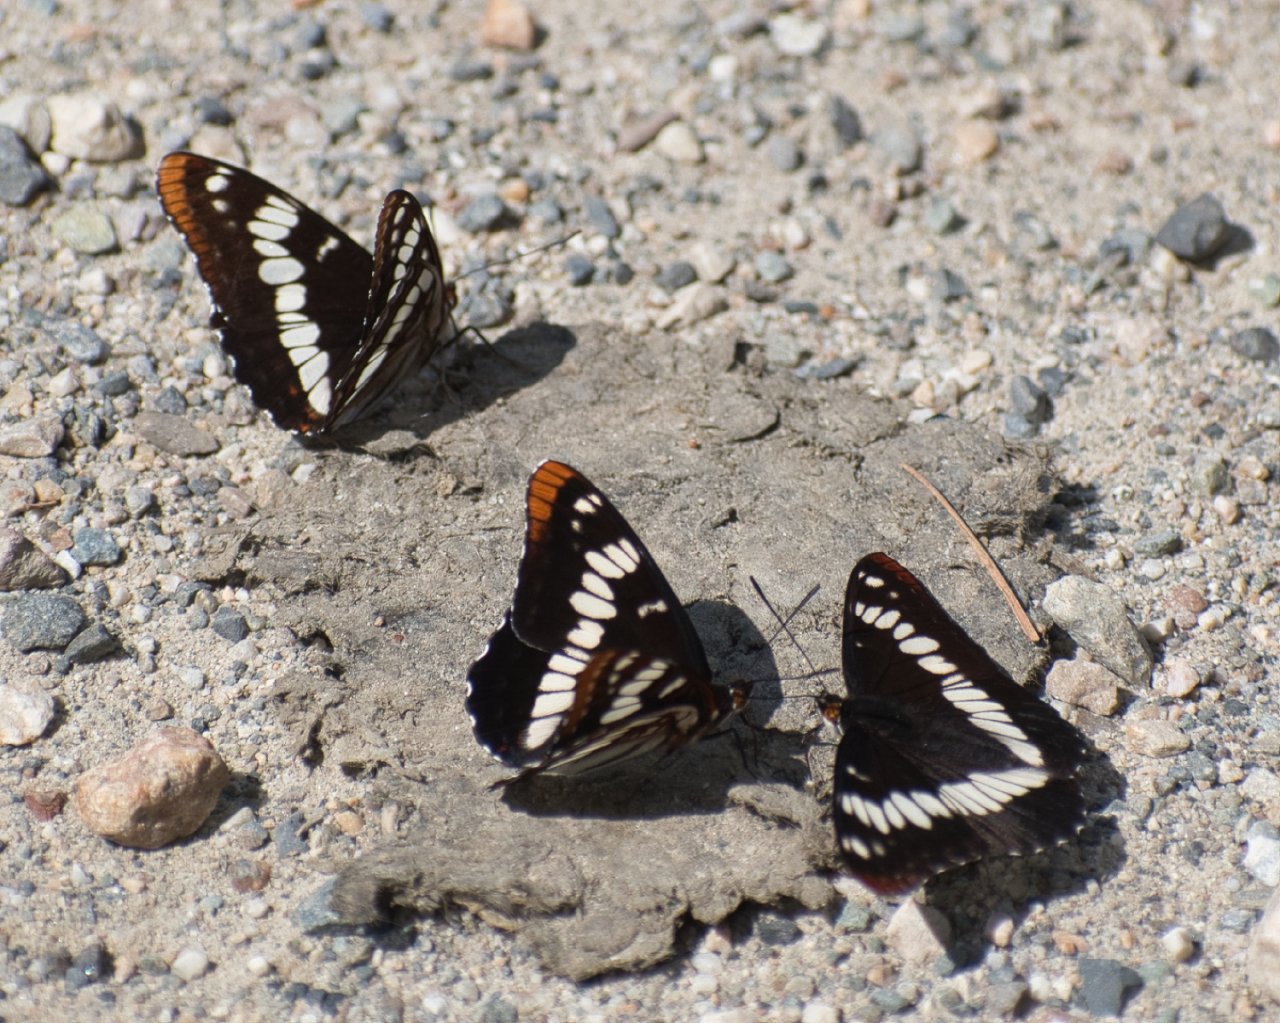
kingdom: Animalia
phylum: Arthropoda
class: Insecta
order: Lepidoptera
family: Nymphalidae
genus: Limenitis
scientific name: Limenitis lorquini
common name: Lorquin's Admiral
